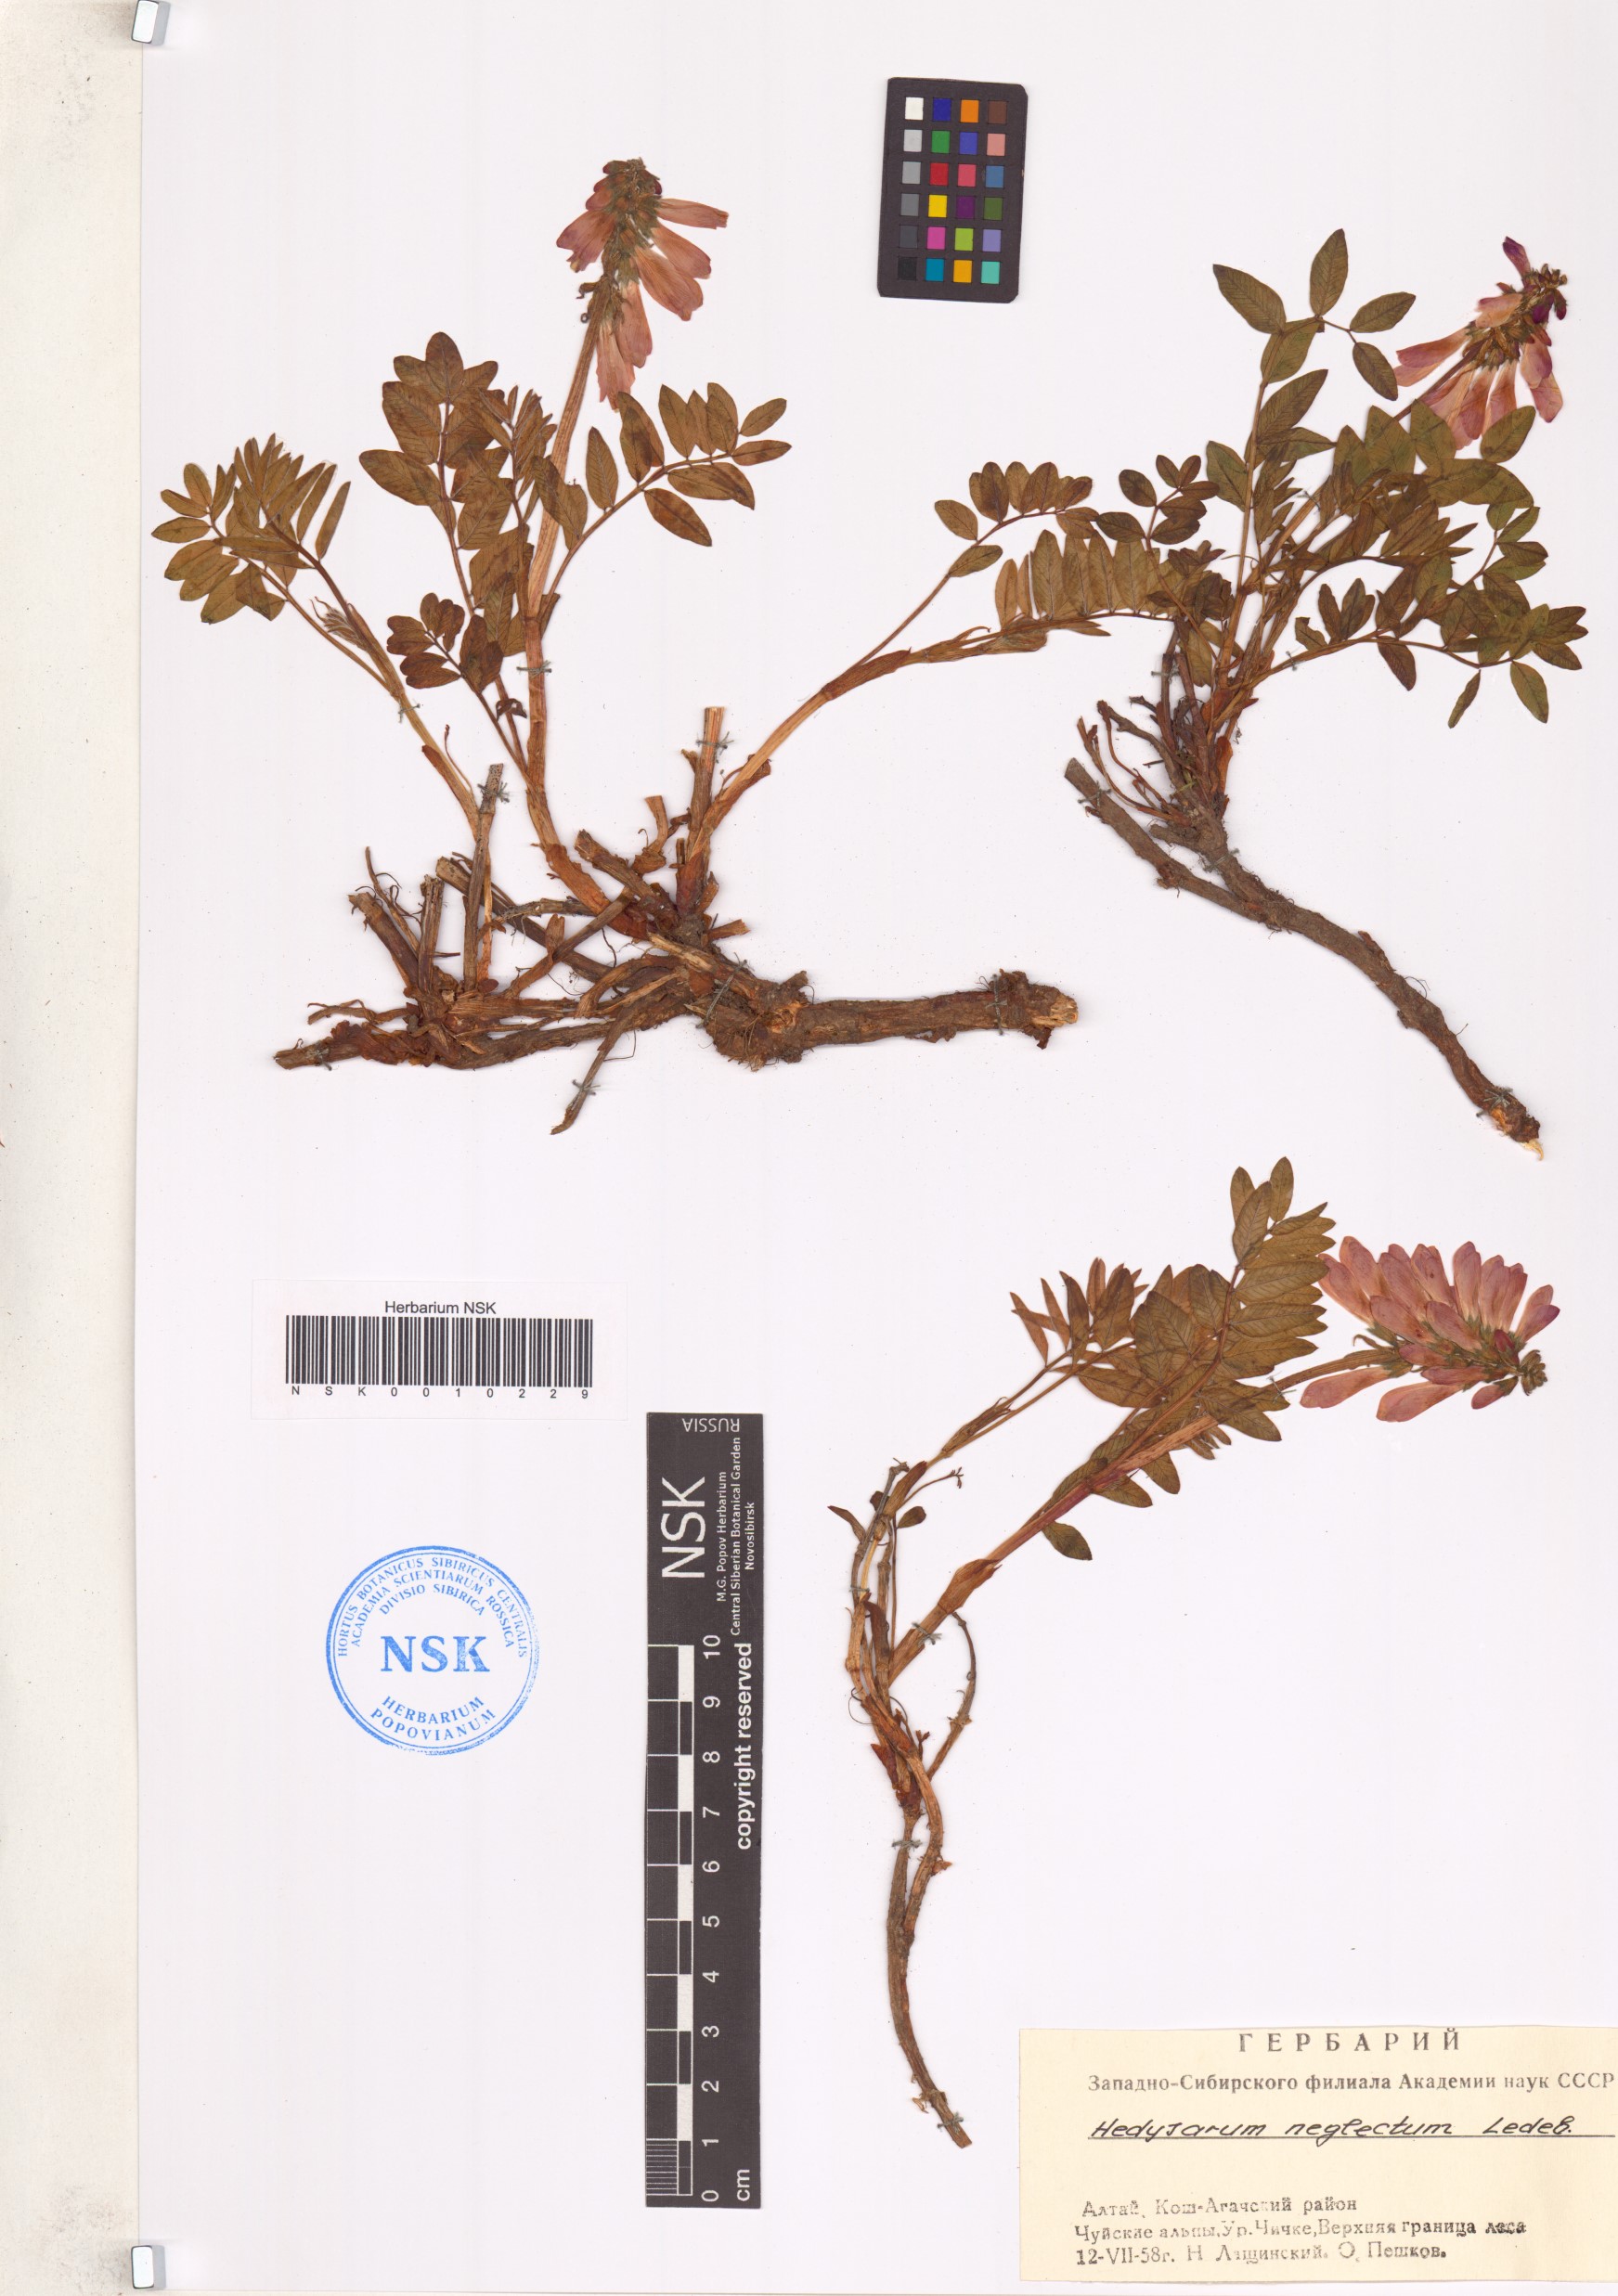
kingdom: Plantae
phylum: Tracheophyta
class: Magnoliopsida
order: Fabales
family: Fabaceae
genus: Hedysarum
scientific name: Hedysarum neglectum
